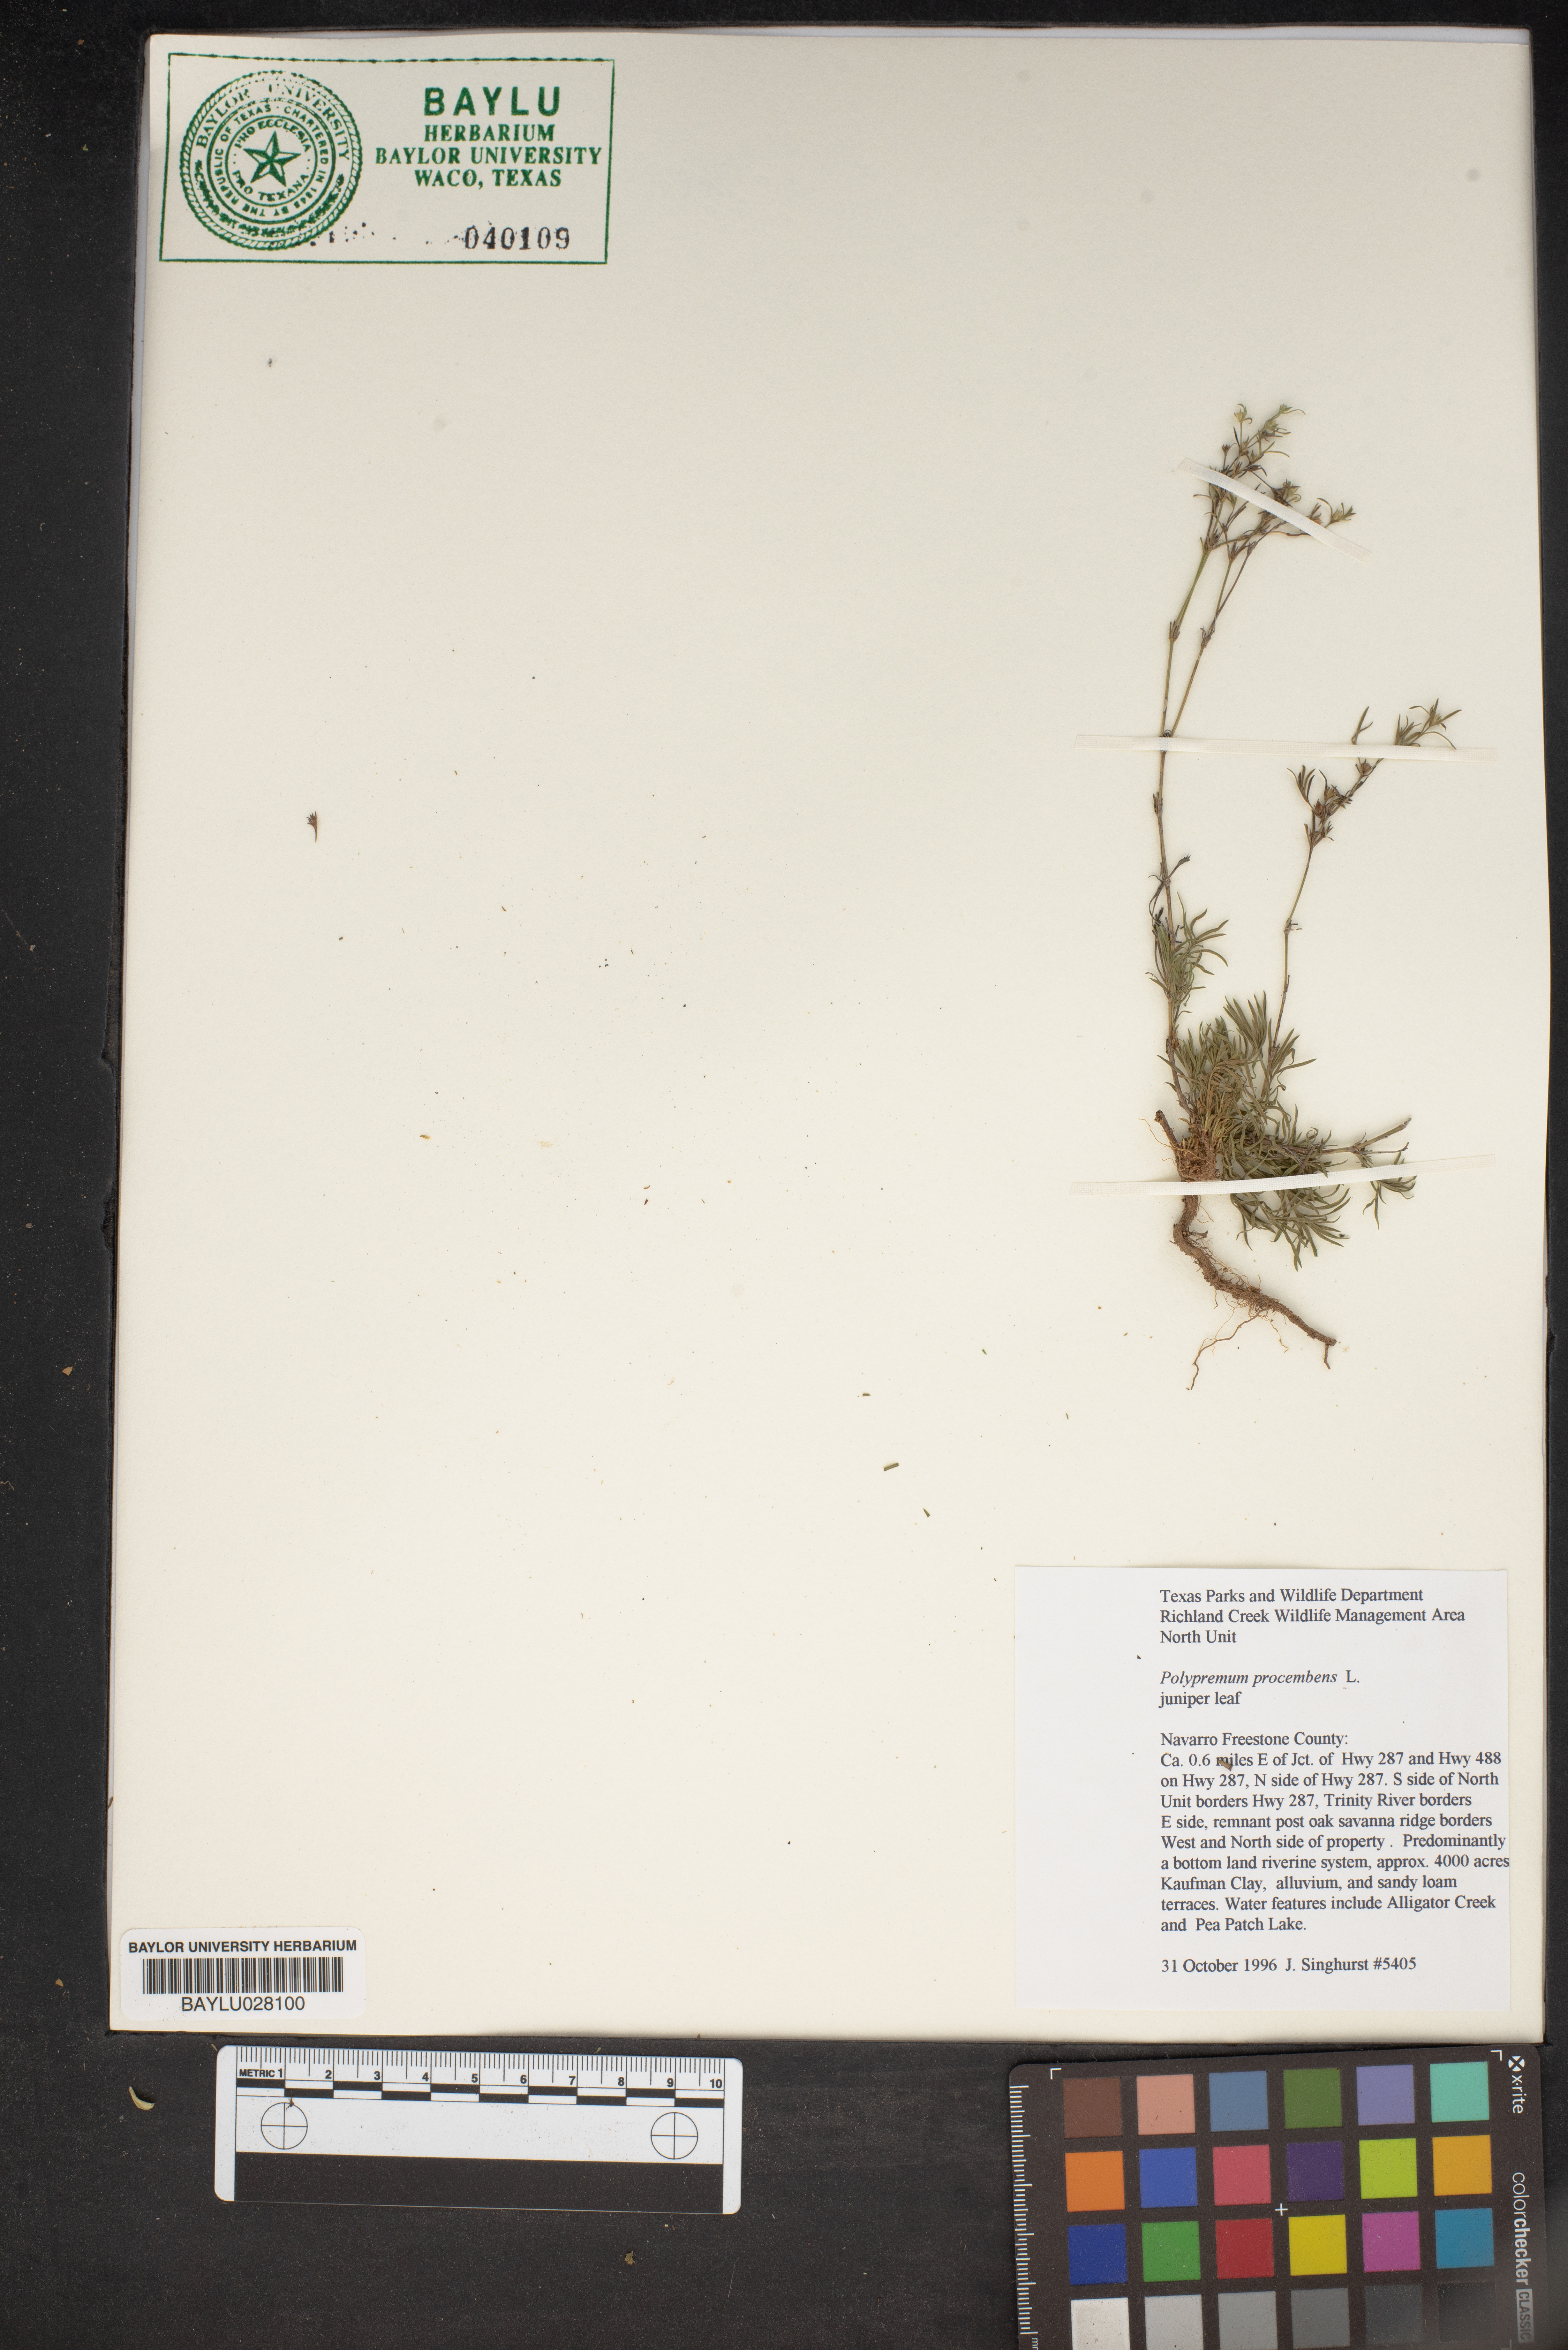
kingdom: Plantae
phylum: Tracheophyta
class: Magnoliopsida
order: Lamiales
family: Tetrachondraceae
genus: Polypremum
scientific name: Polypremum procumbens
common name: Juniper-leaf
